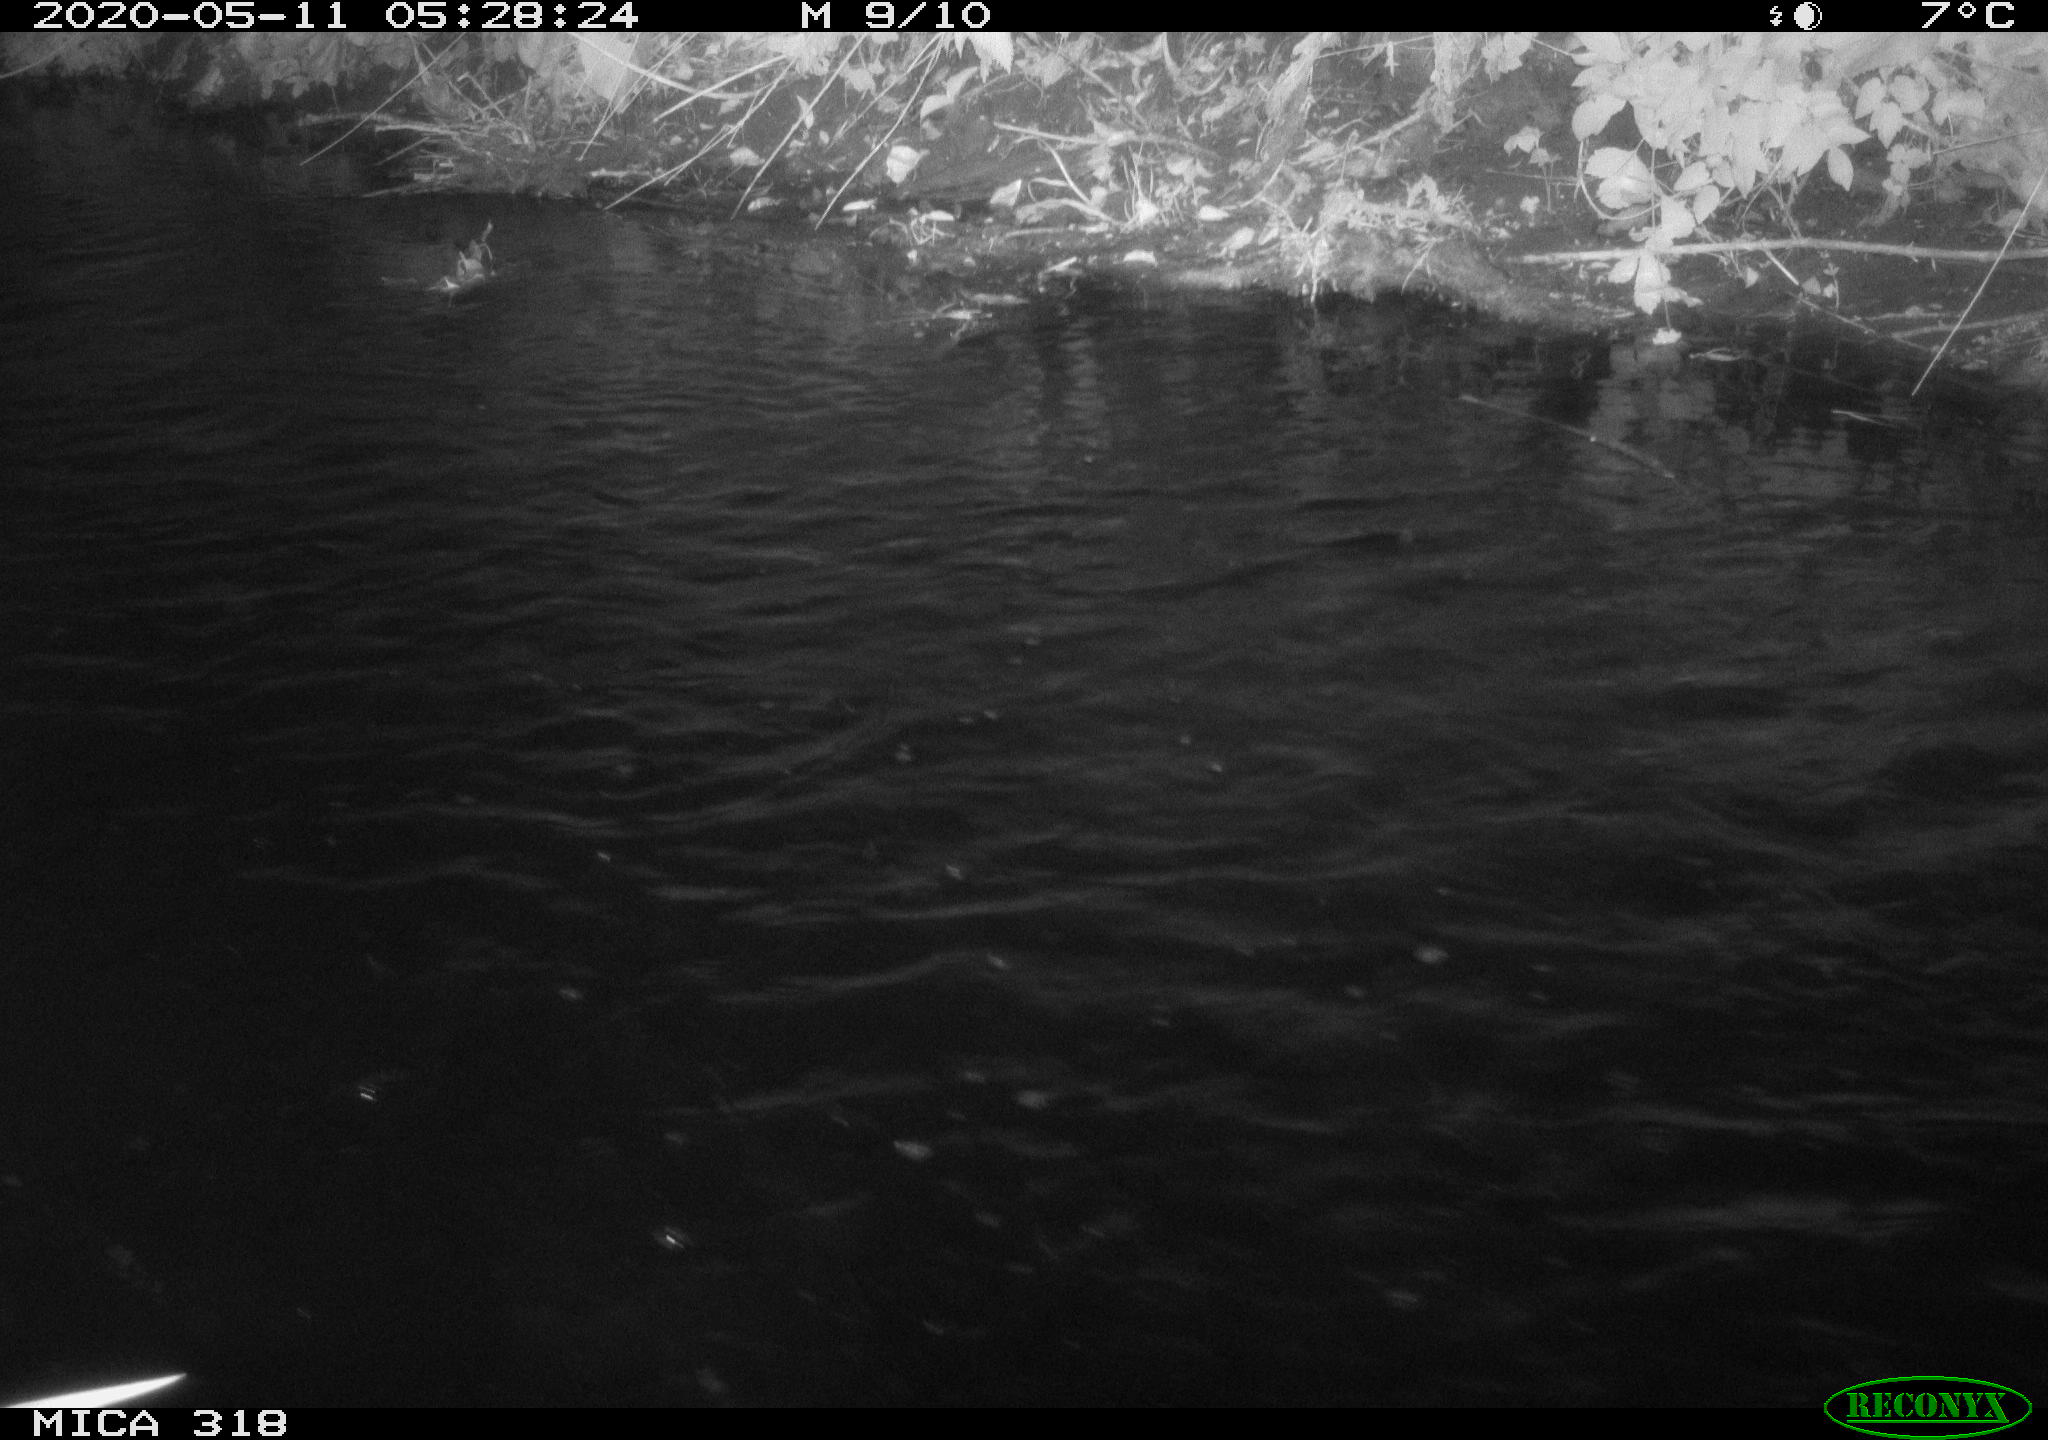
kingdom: Animalia
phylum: Chordata
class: Aves
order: Anseriformes
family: Anatidae
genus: Anas
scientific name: Anas platyrhynchos
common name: Mallard
